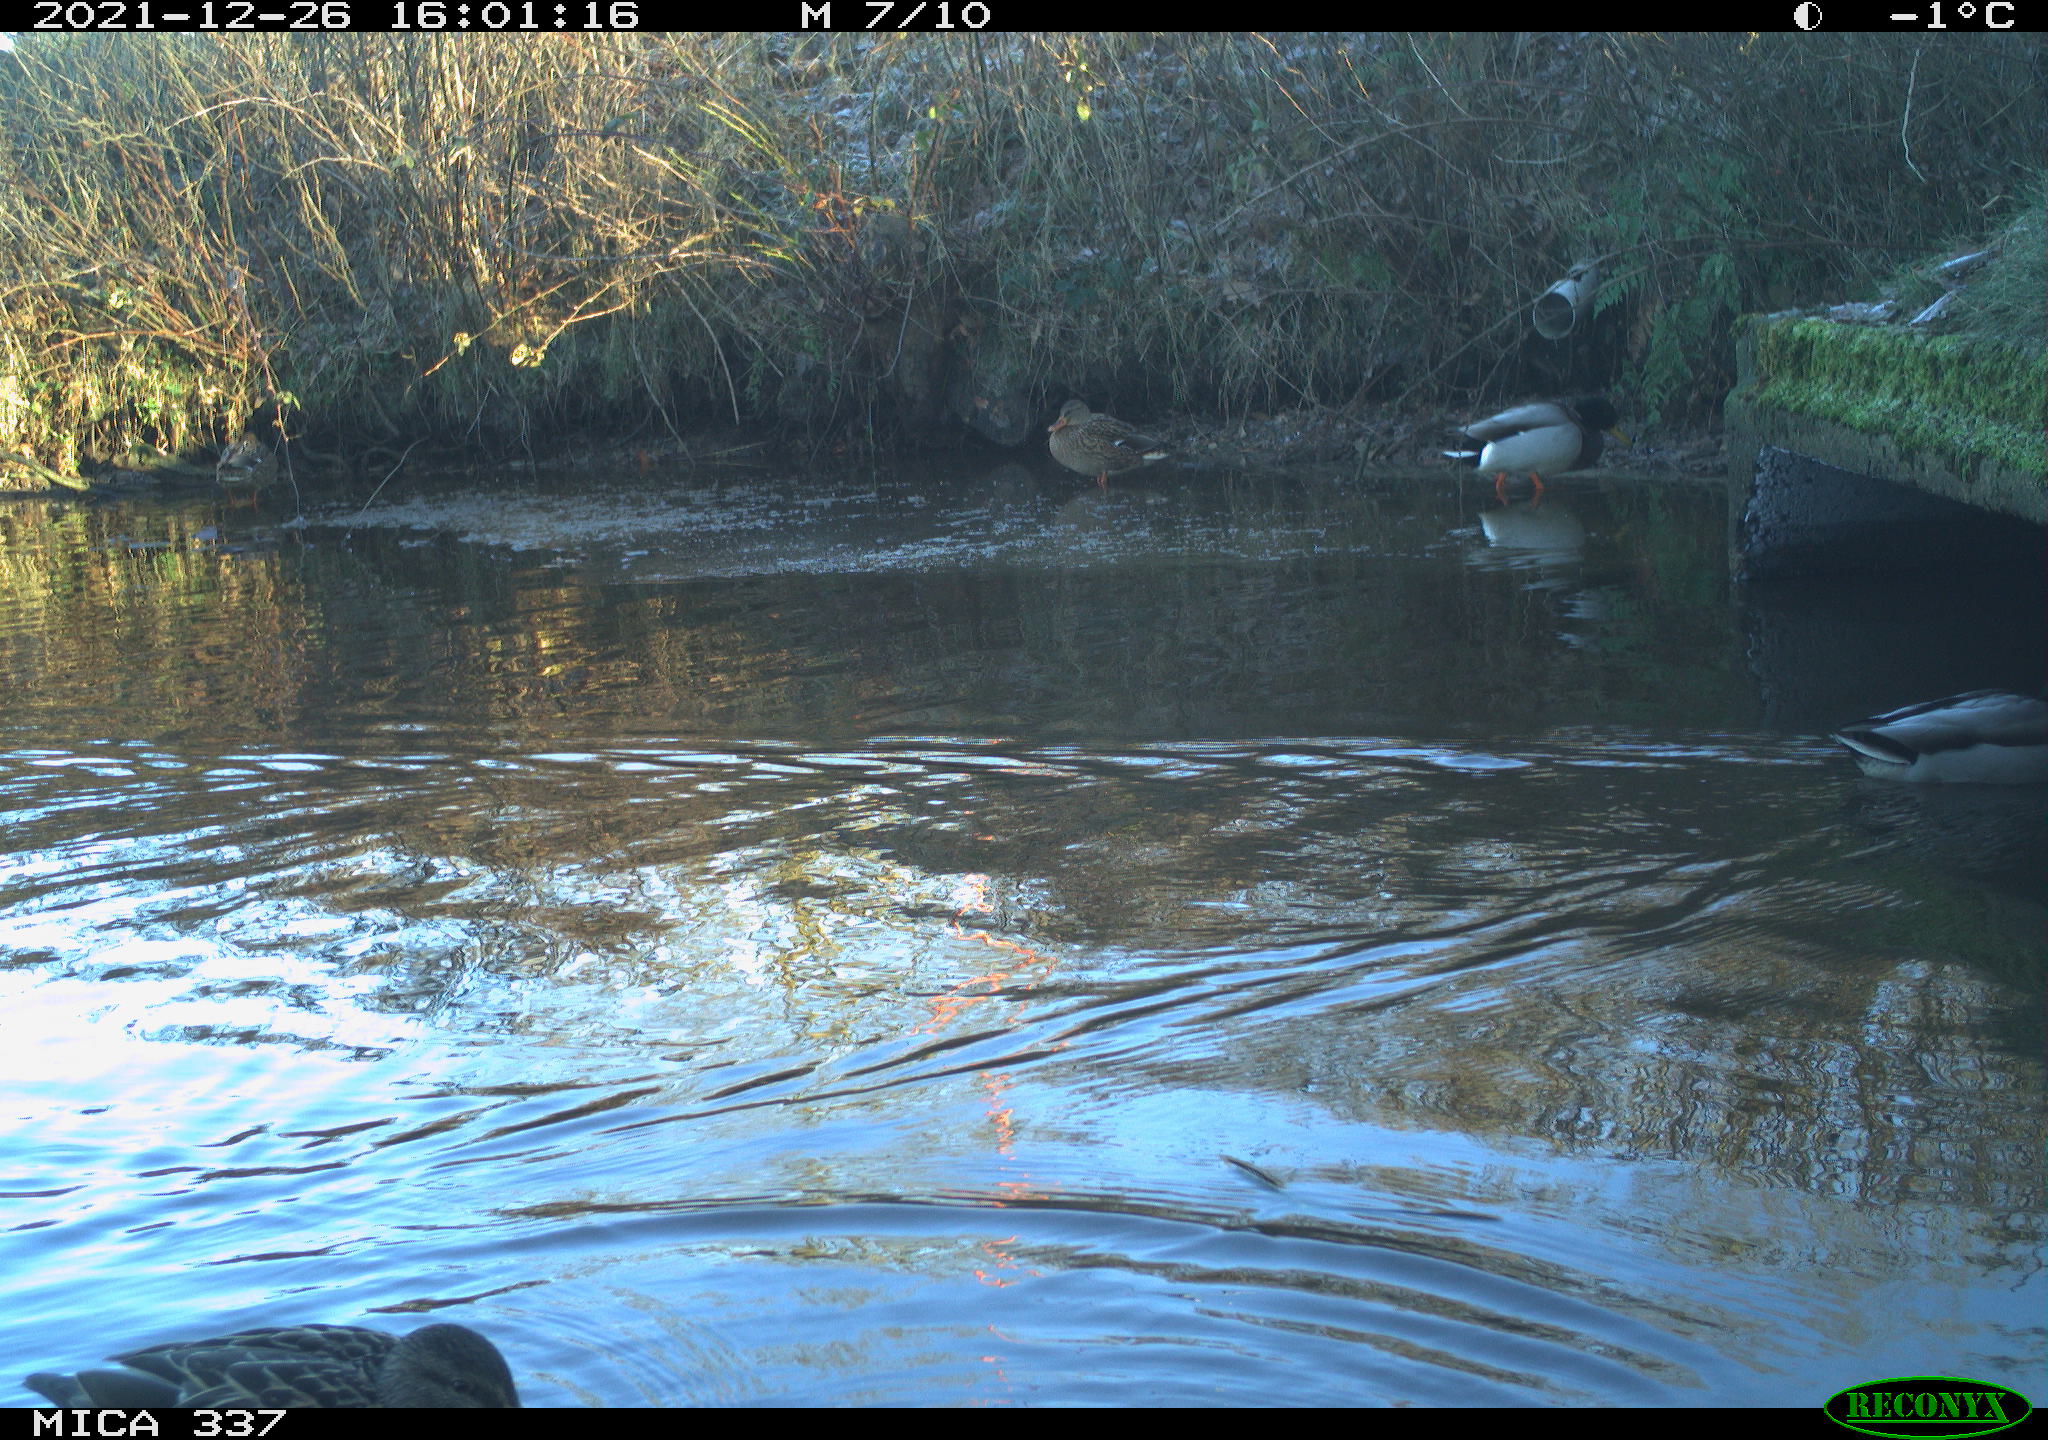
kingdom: Animalia
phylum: Chordata
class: Aves
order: Anseriformes
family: Anatidae
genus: Anas
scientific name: Anas platyrhynchos
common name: Mallard
